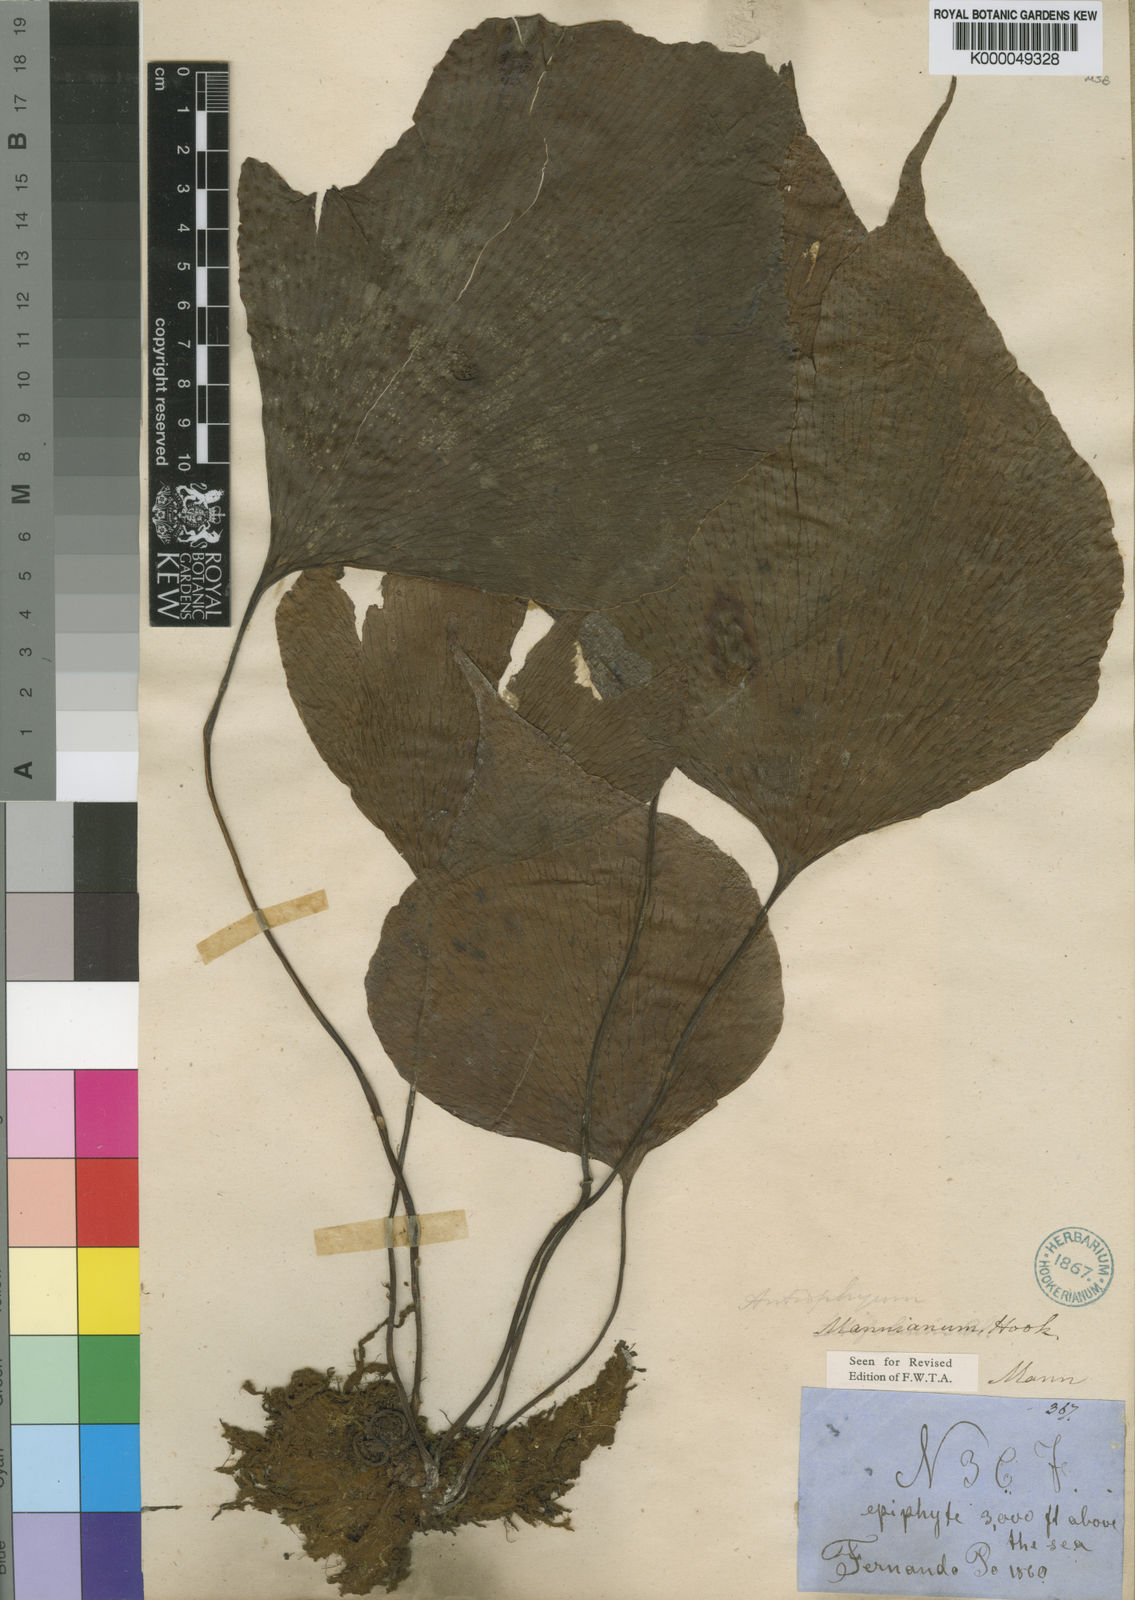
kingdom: Plantae
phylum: Tracheophyta
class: Polypodiopsida
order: Polypodiales
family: Pteridaceae
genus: Antrophyopsis
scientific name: Antrophyopsis manniana
